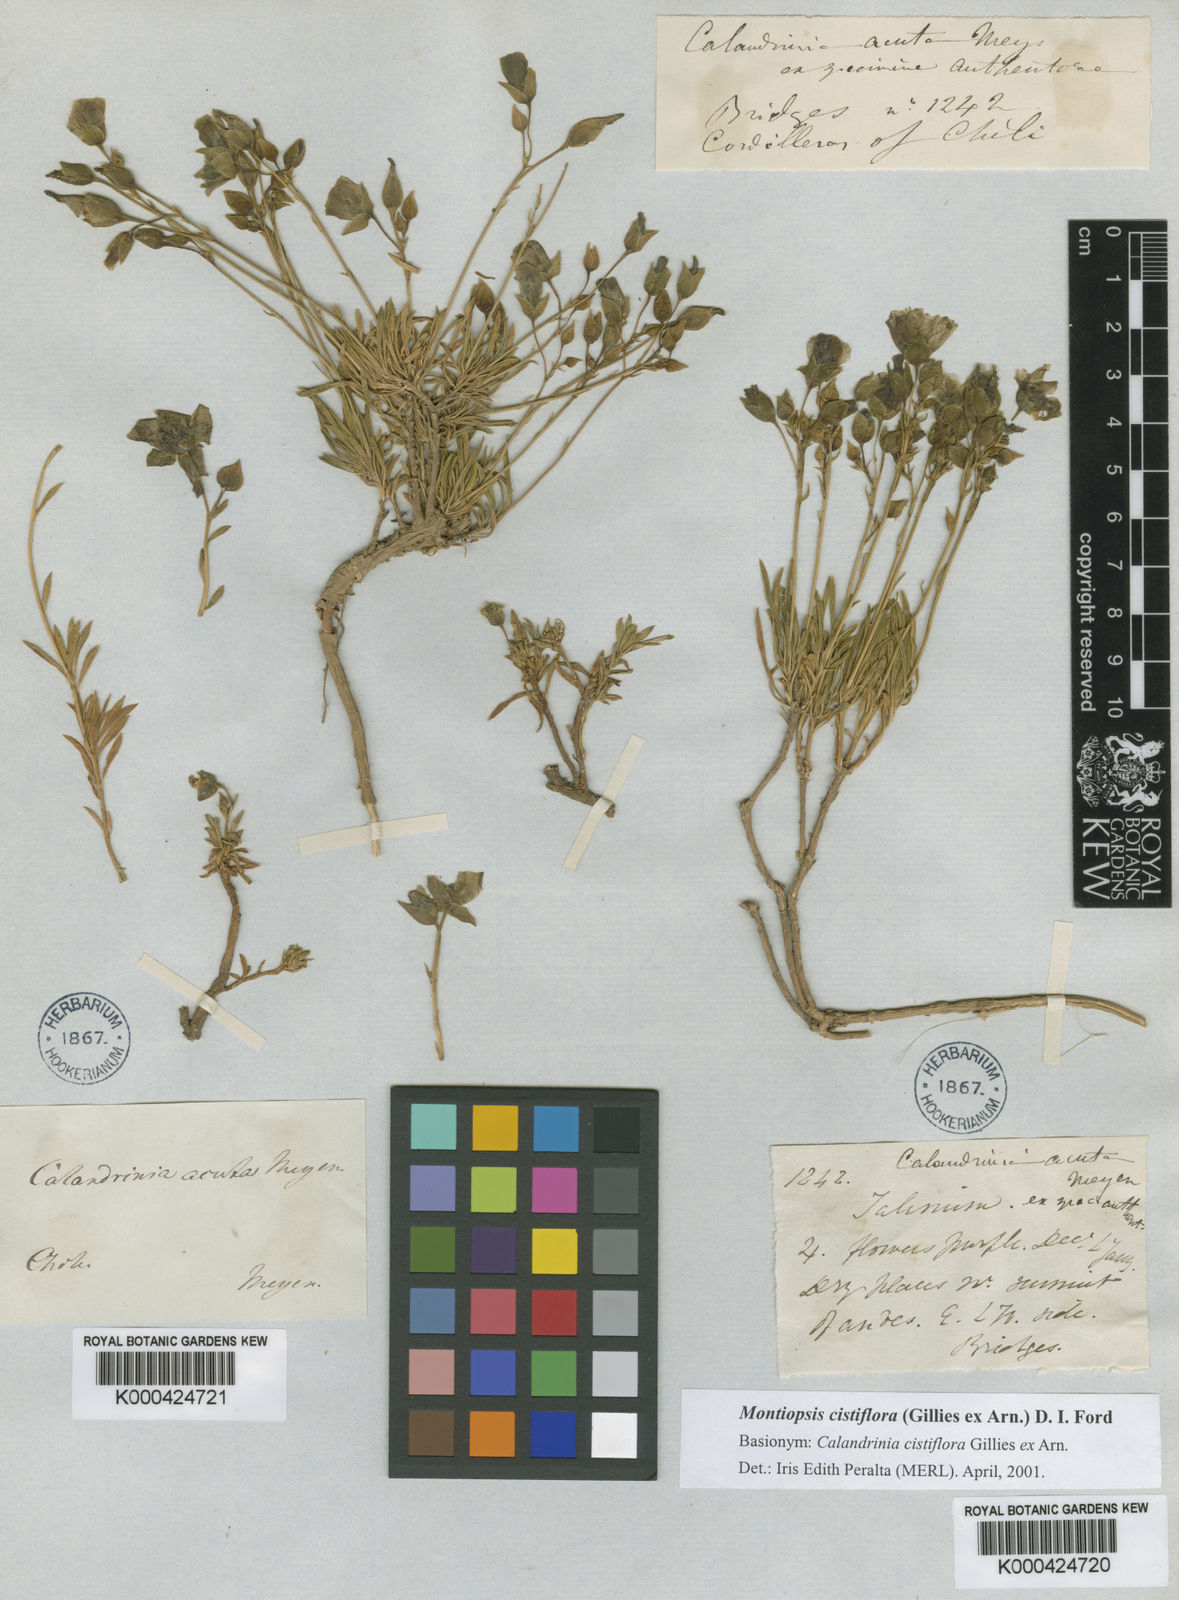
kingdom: Plantae
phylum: Tracheophyta
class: Magnoliopsida
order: Caryophyllales
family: Montiaceae
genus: Montiopsis
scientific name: Montiopsis cistiflora
